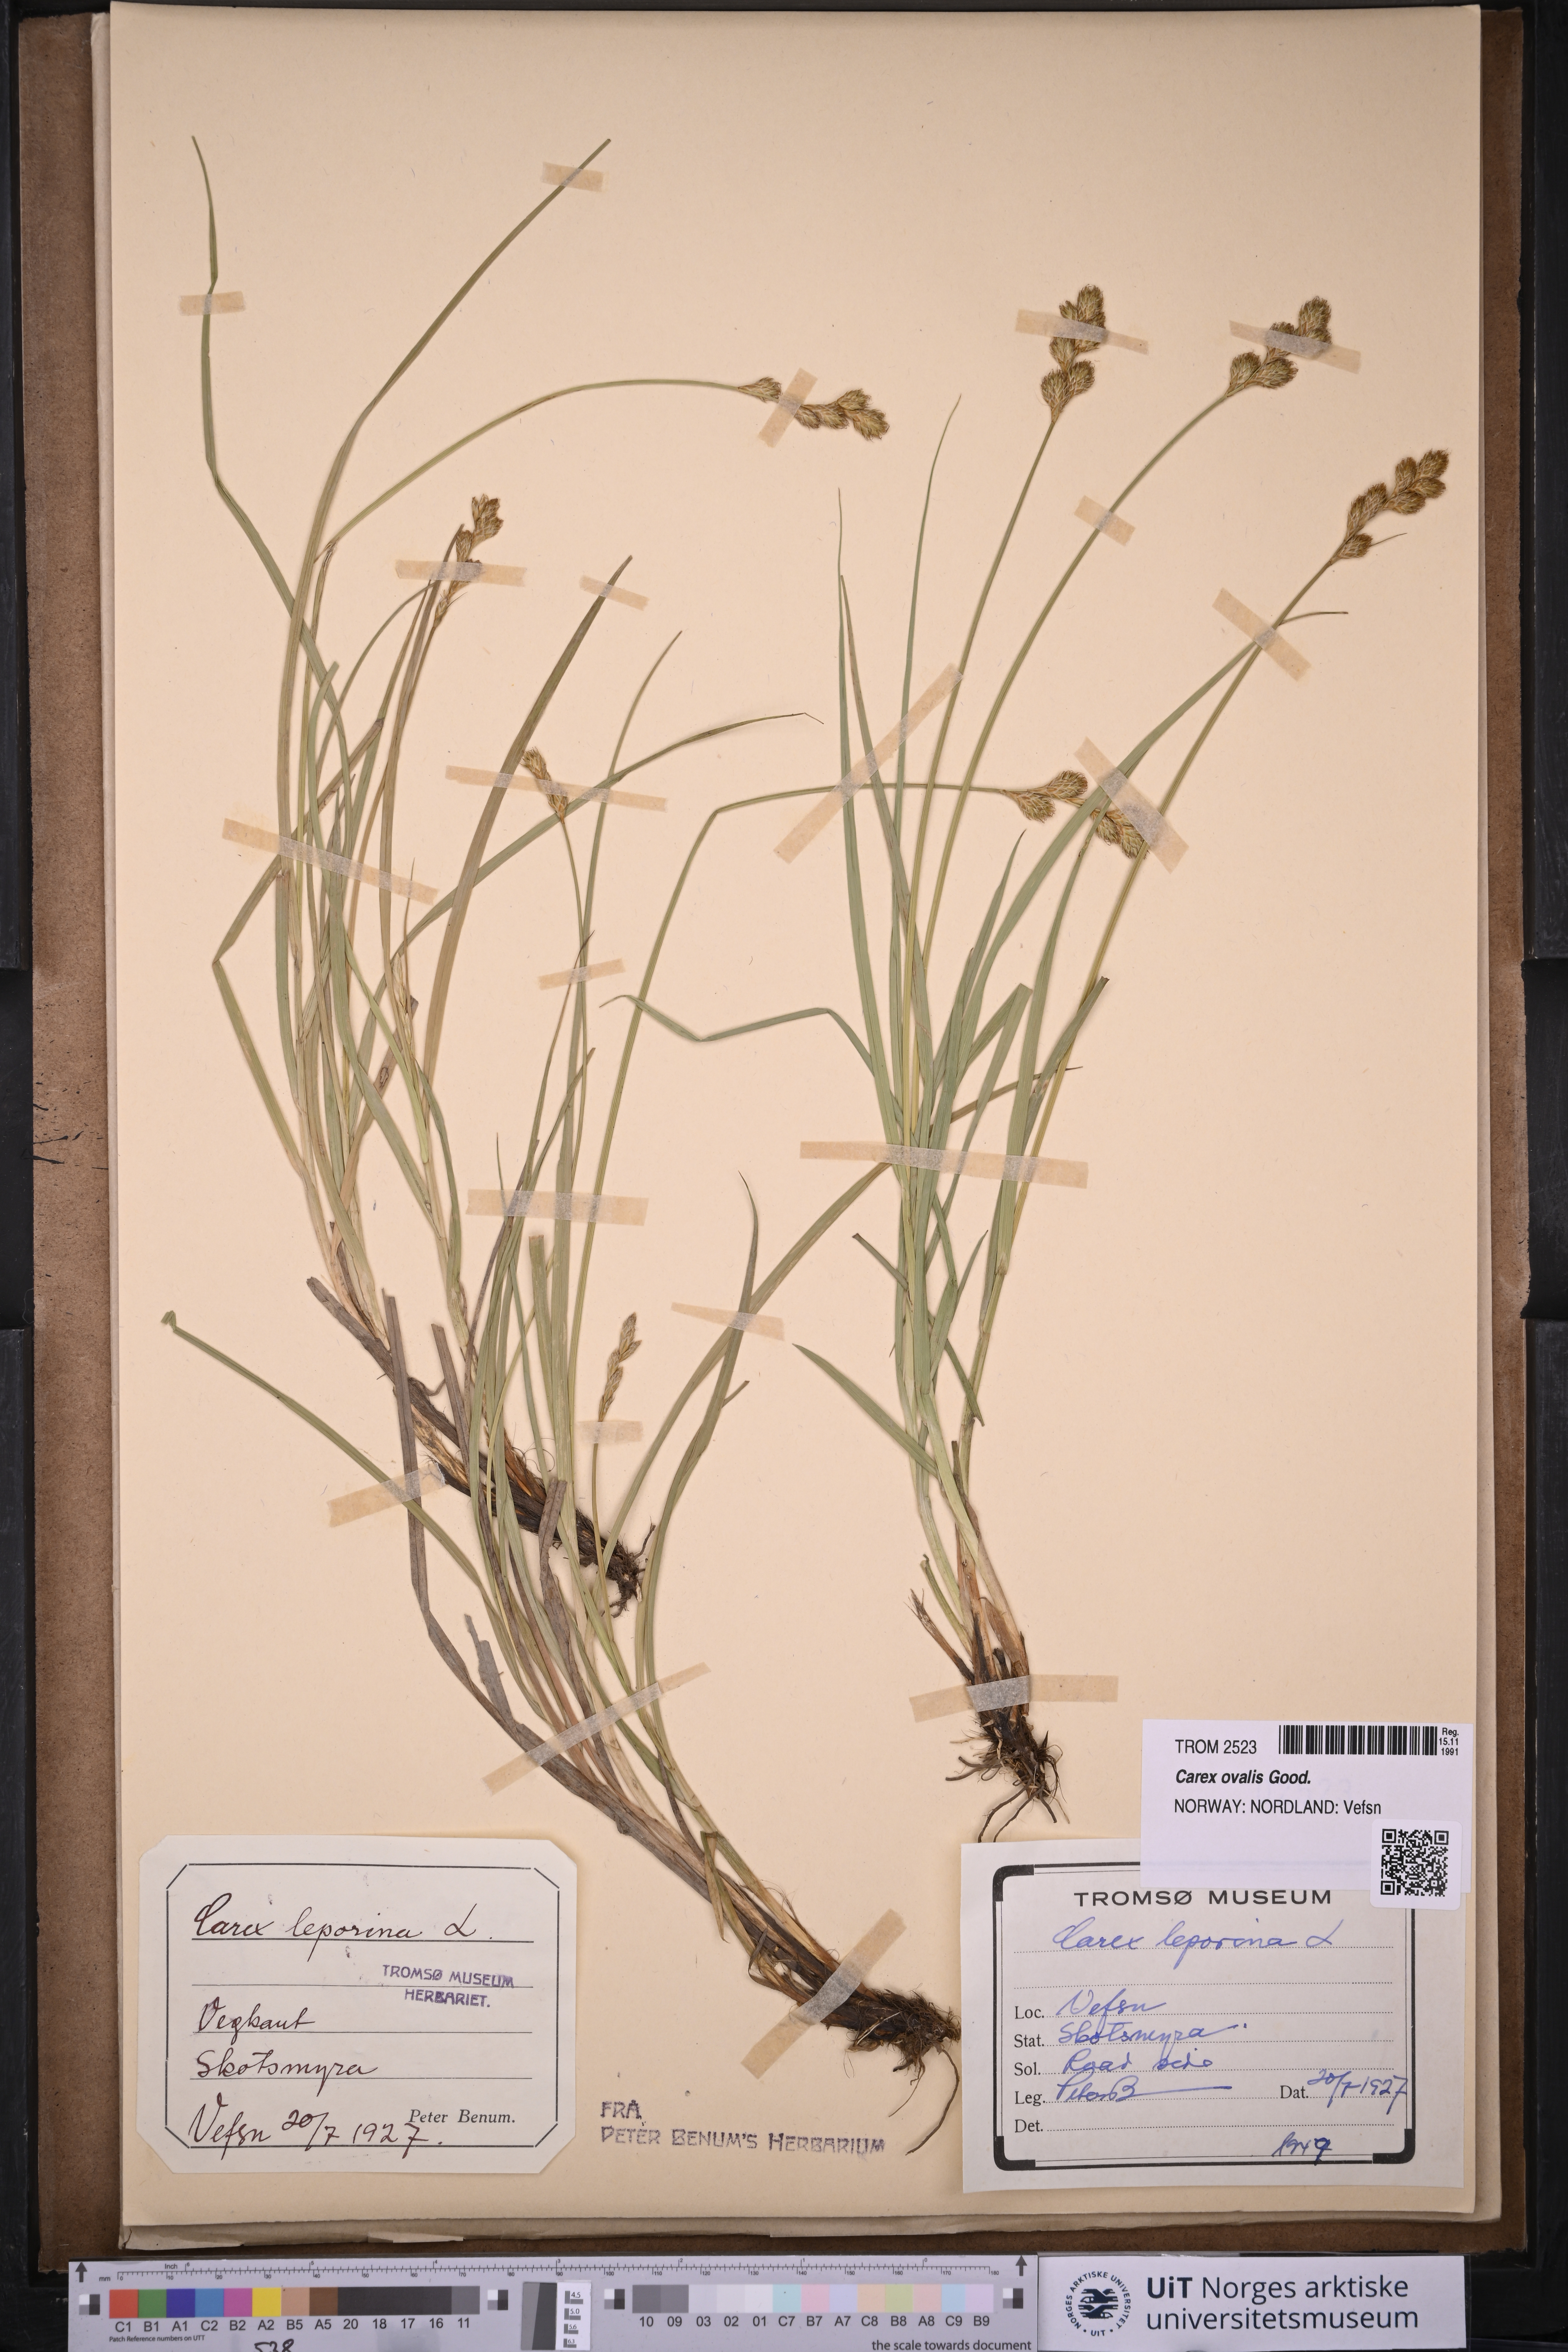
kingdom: Plantae
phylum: Tracheophyta
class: Liliopsida
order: Poales
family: Cyperaceae
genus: Carex
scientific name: Carex leporina
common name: Oval sedge
